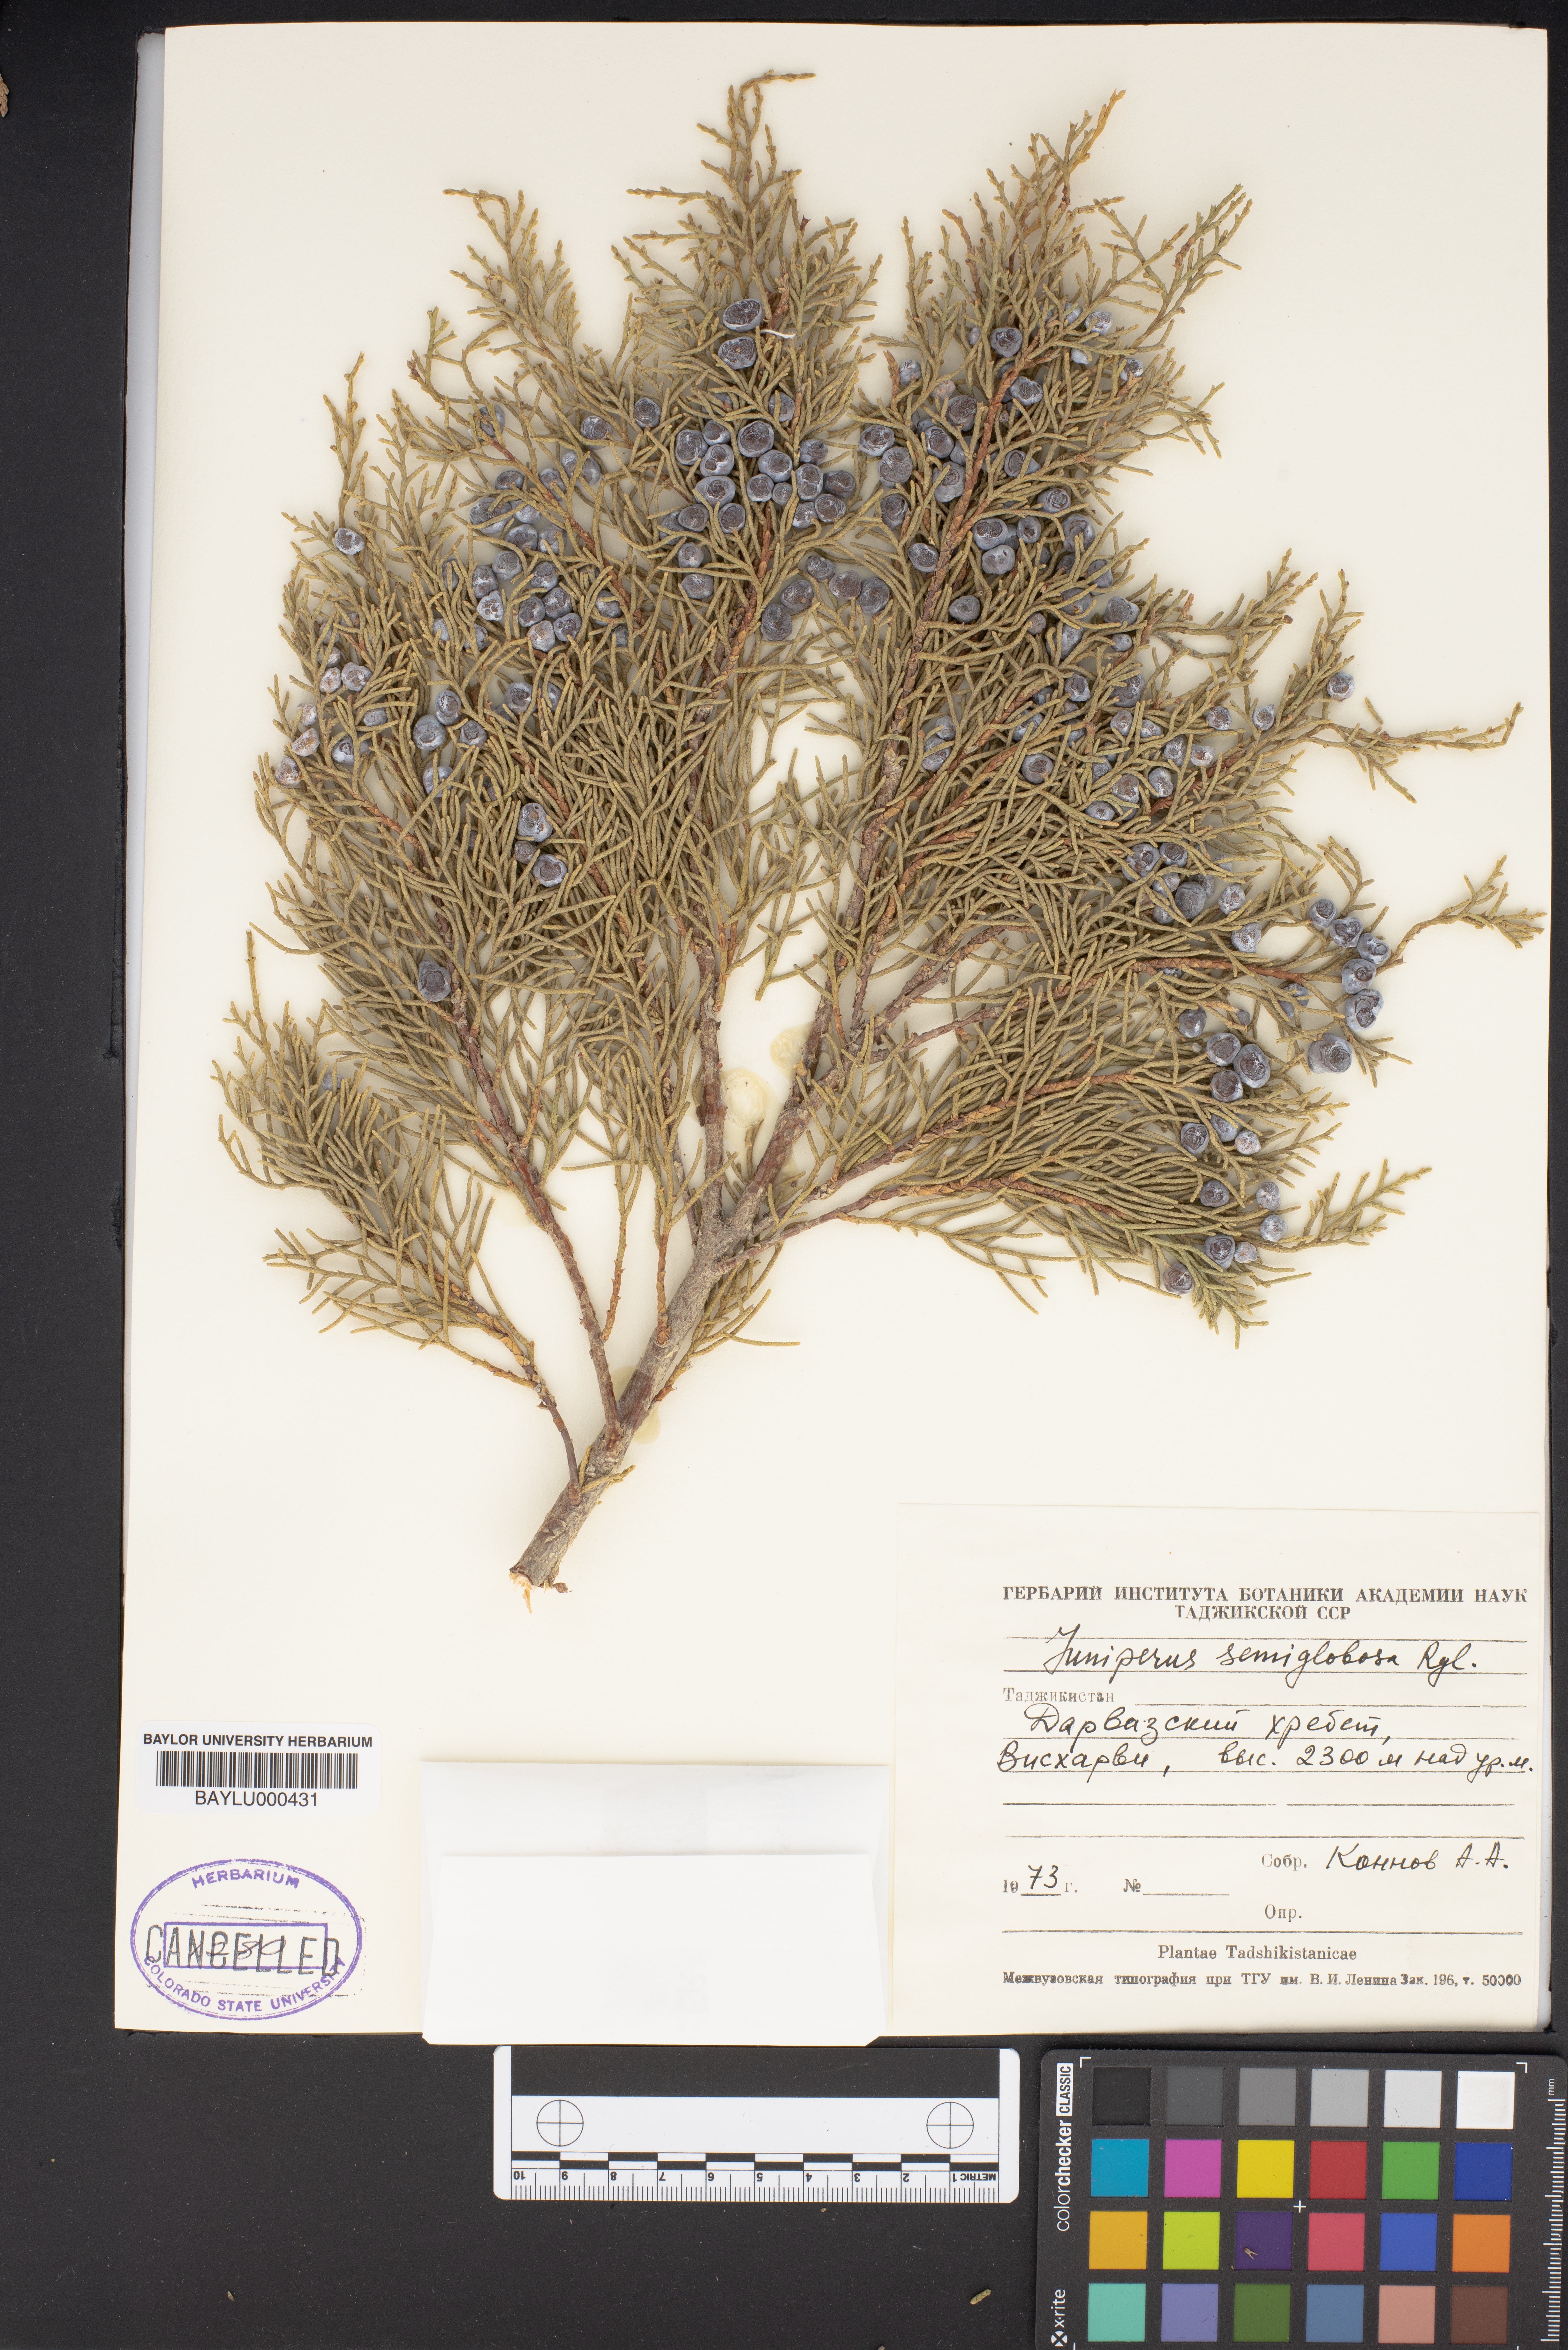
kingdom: Plantae
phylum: Tracheophyta
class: Pinopsida
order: Pinales
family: Cupressaceae
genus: Juniperus
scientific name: Juniperus semiglobosa
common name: Pencil cedar
